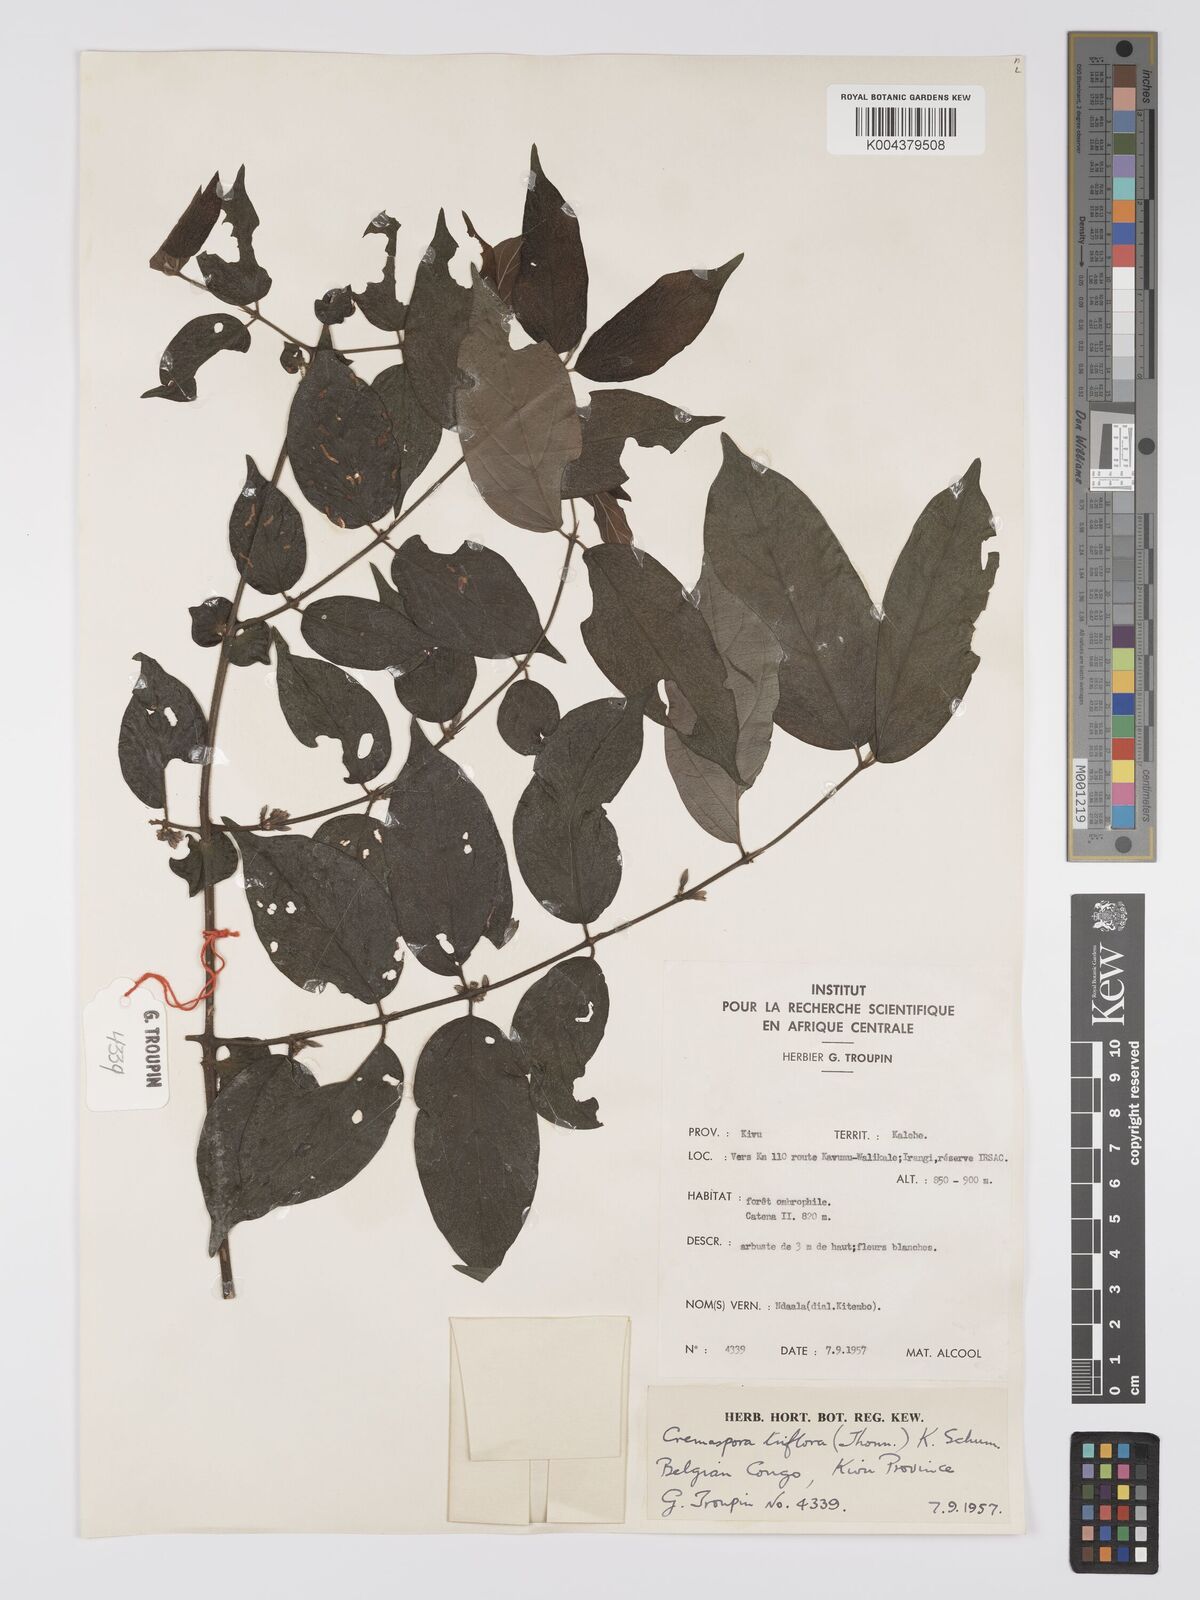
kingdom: Plantae
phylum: Tracheophyta
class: Magnoliopsida
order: Gentianales
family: Rubiaceae
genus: Cremaspora
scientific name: Cremaspora triflora
